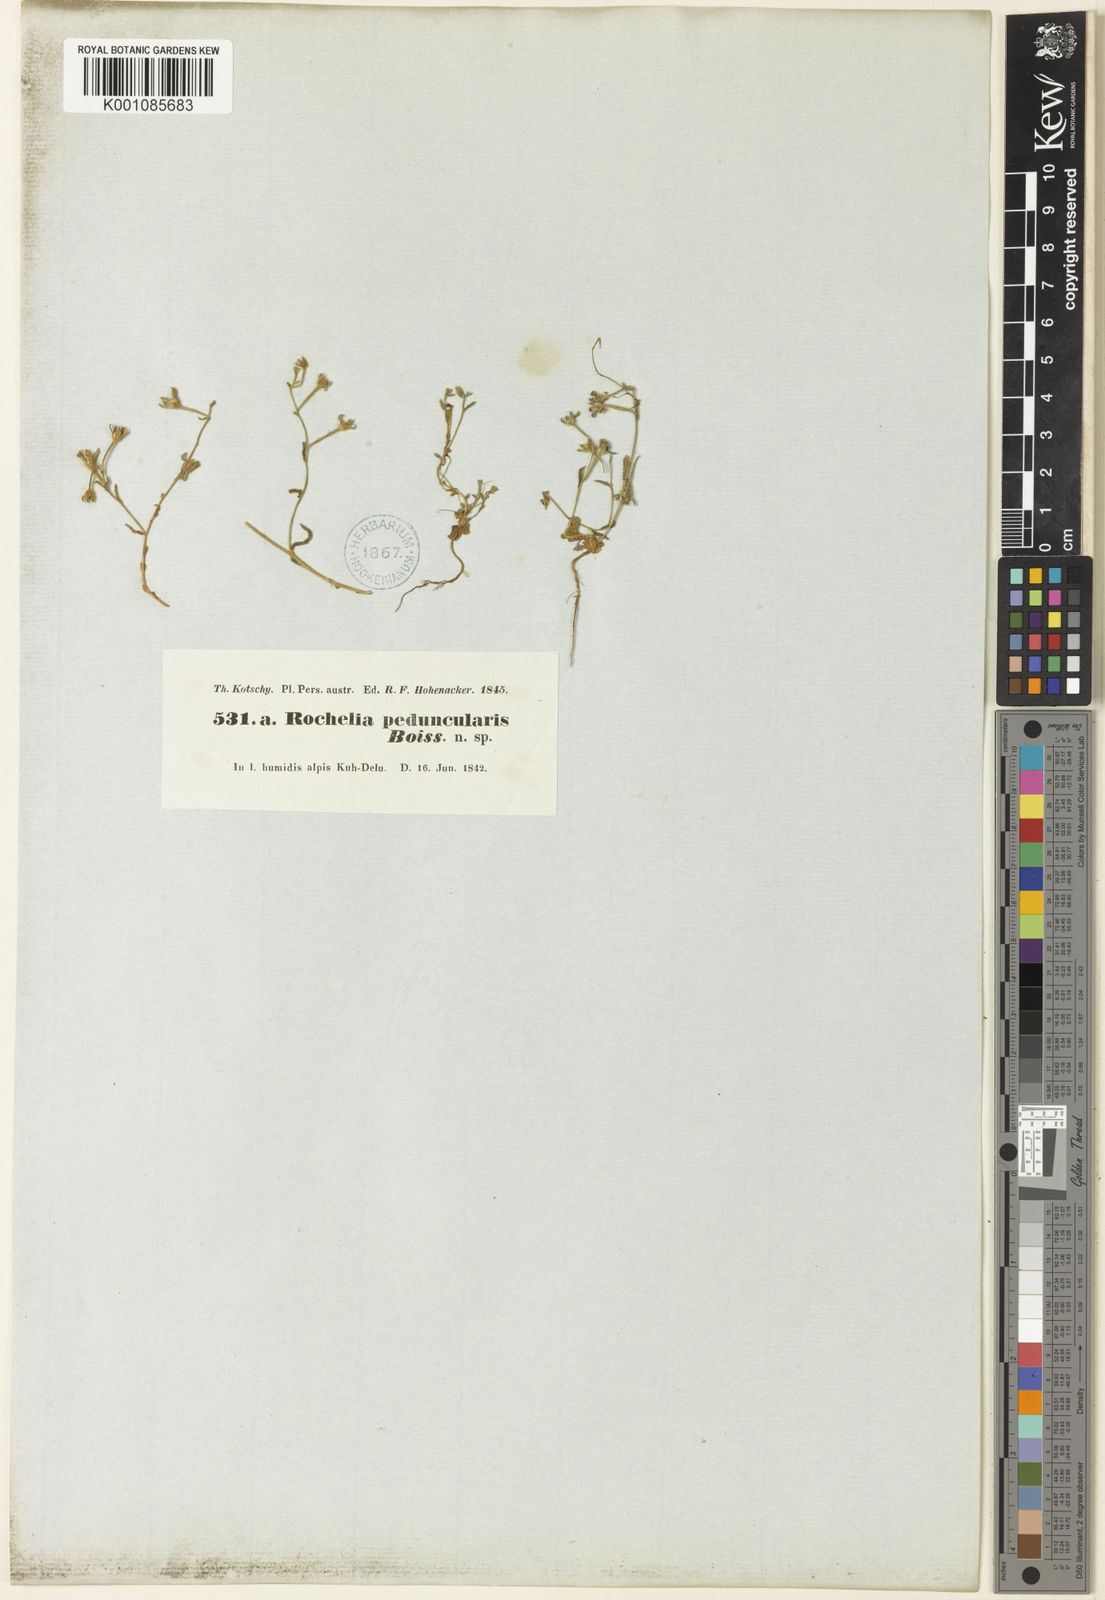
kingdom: Plantae
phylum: Tracheophyta
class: Magnoliopsida
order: Boraginales
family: Boraginaceae
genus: Anchusa
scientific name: Anchusa
